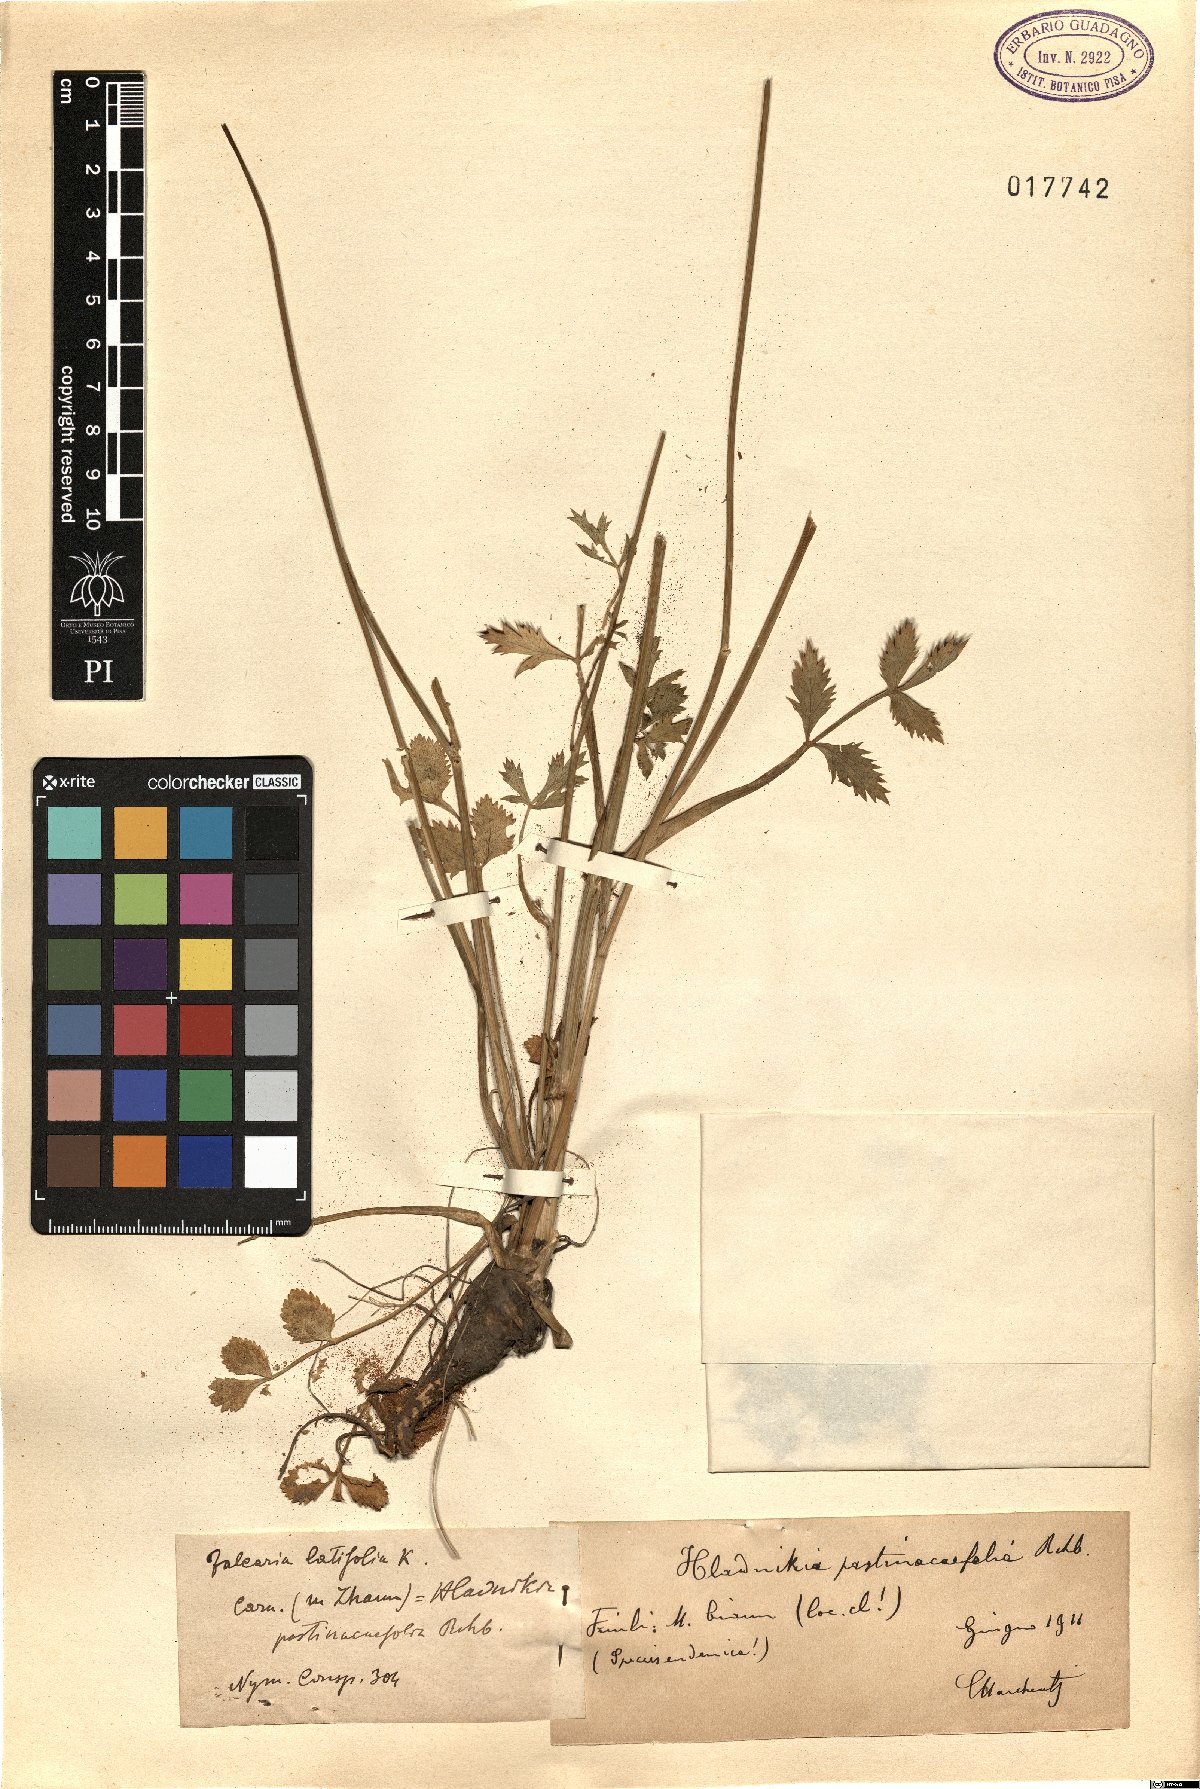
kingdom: Plantae
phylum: Tracheophyta
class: Magnoliopsida
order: Apiales
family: Apiaceae
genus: Hladnikia
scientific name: Hladnikia pastinacifolia
